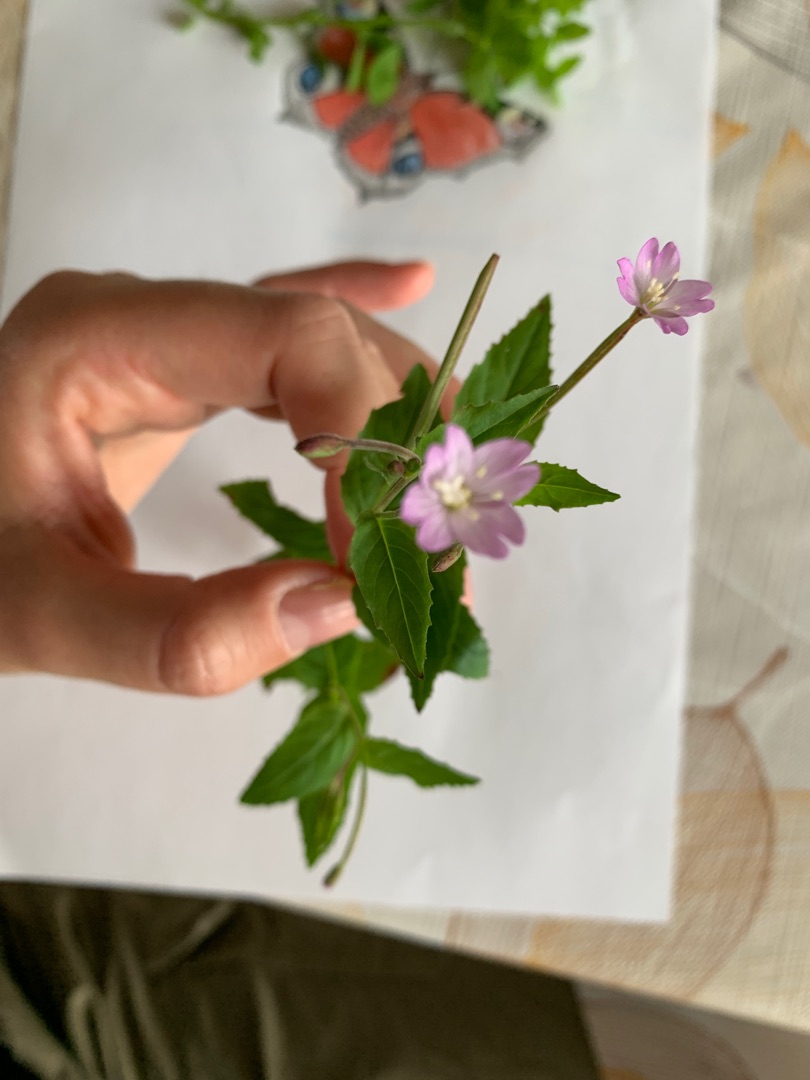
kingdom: Plantae
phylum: Tracheophyta
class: Magnoliopsida
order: Myrtales
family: Onagraceae
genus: Epilobium
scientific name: Epilobium montanum
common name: Glat dueurt
